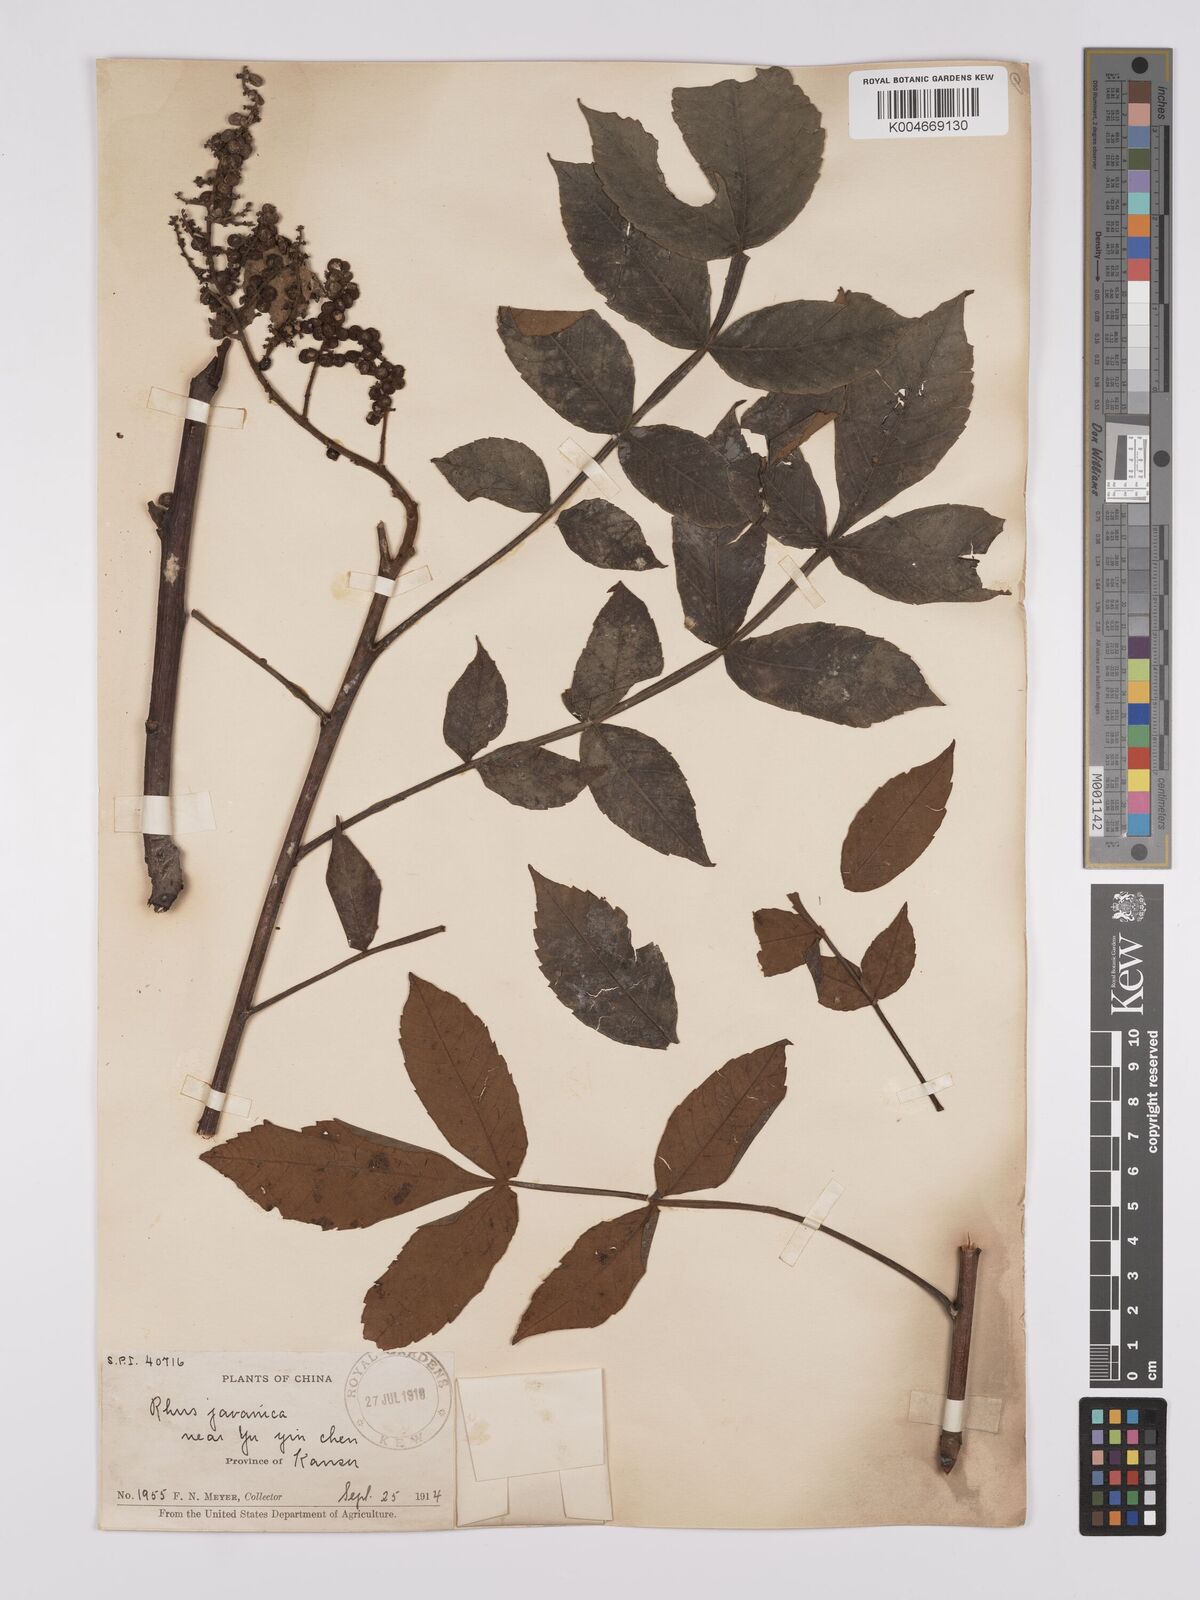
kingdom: Plantae
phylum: Tracheophyta
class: Magnoliopsida
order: Sapindales
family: Anacardiaceae
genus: Rhus
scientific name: Rhus chinensis
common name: Chinese gall
